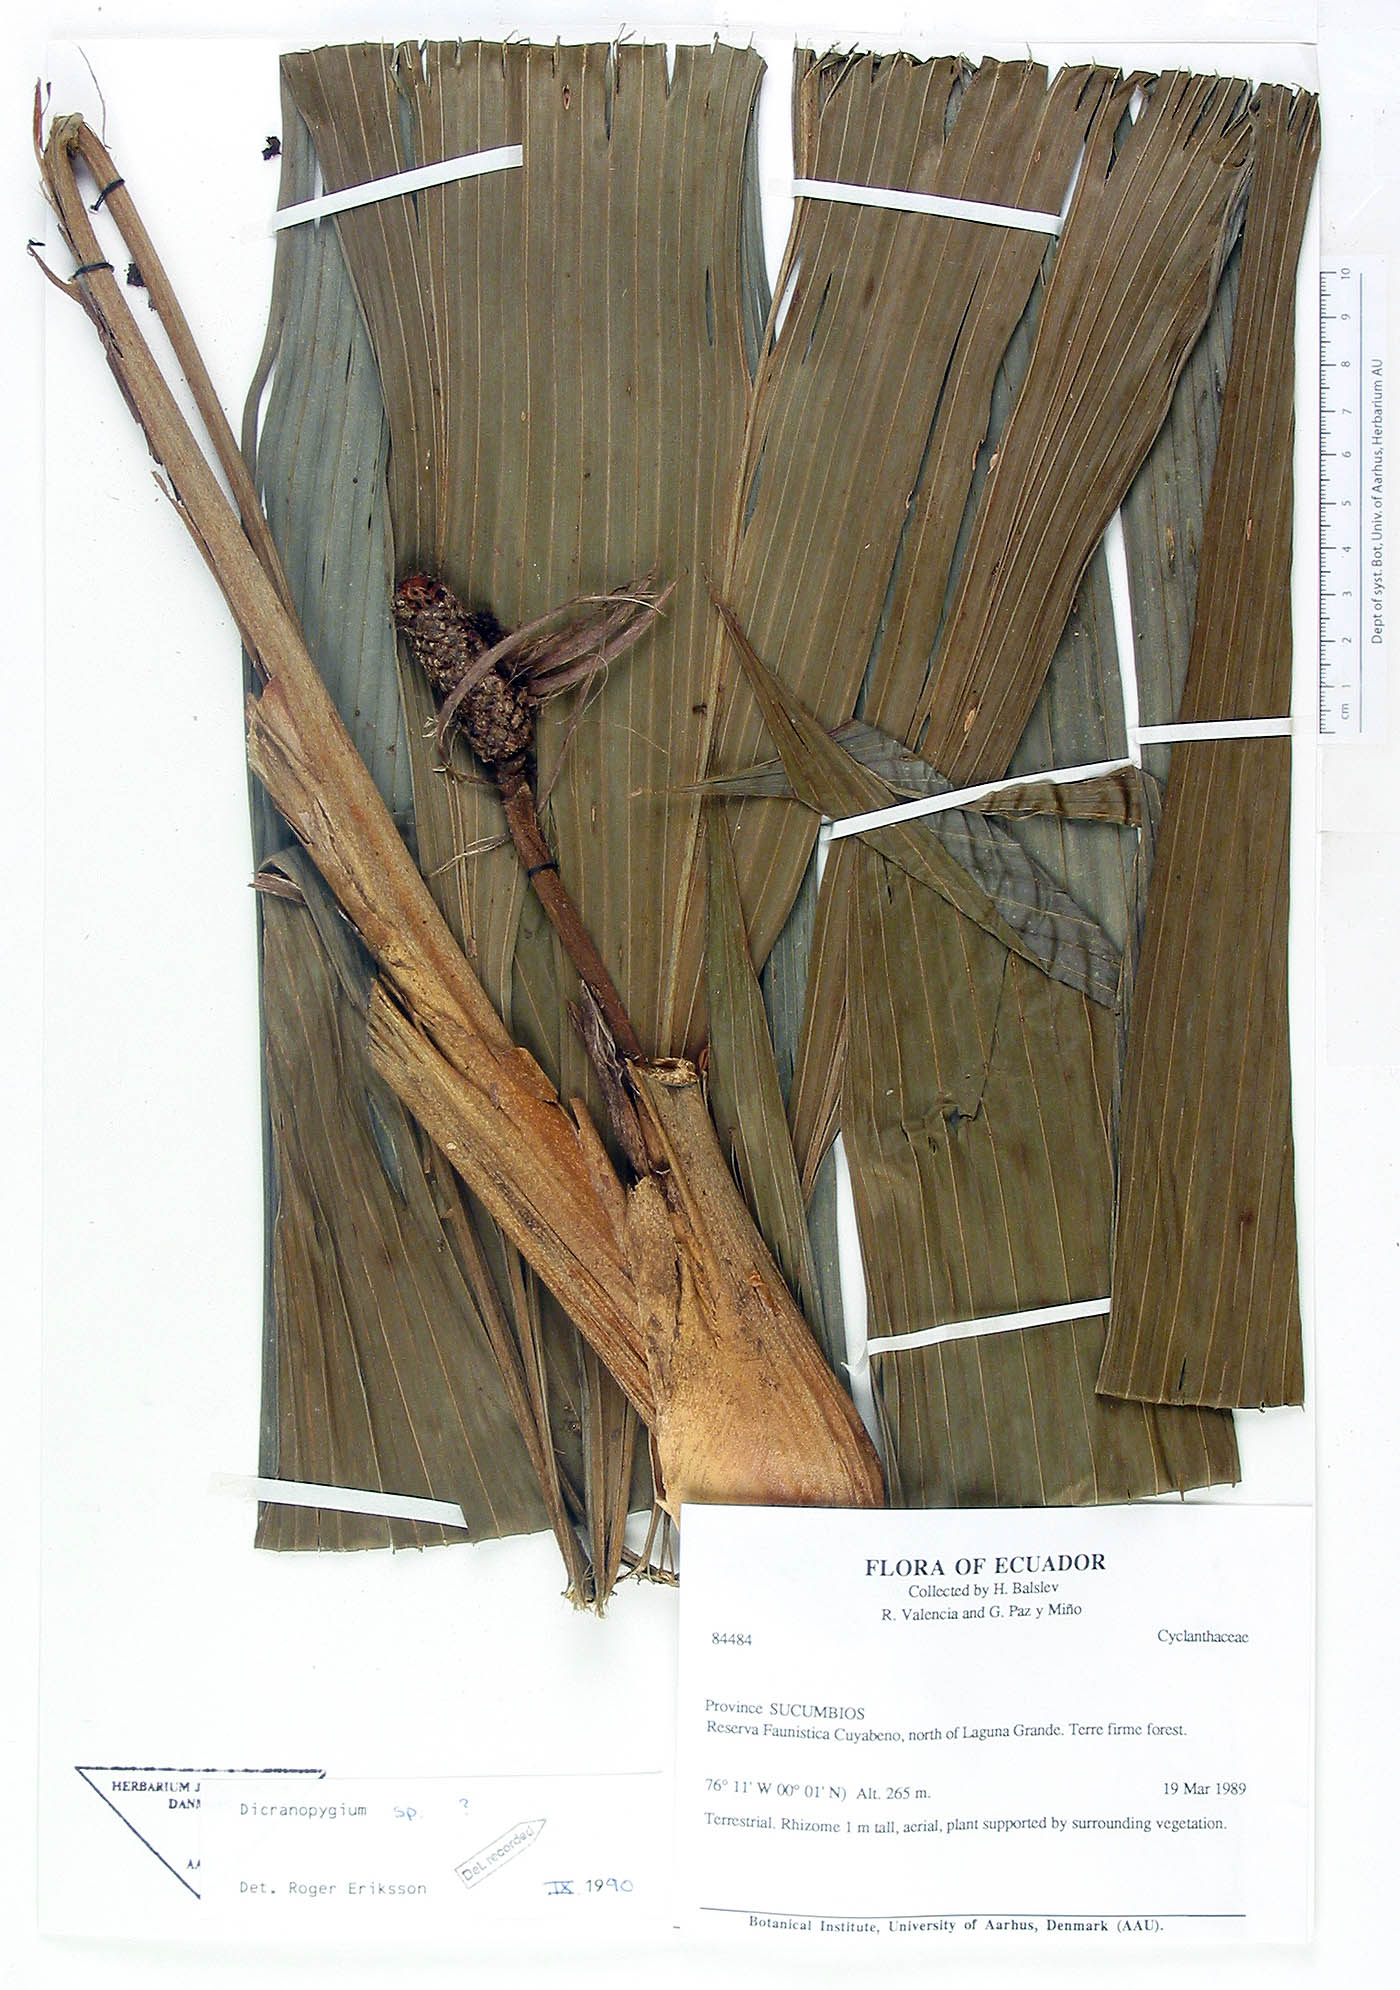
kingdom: Plantae
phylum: Tracheophyta
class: Liliopsida
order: Pandanales
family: Cyclanthaceae
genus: Dicranopygium
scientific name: Dicranopygium
